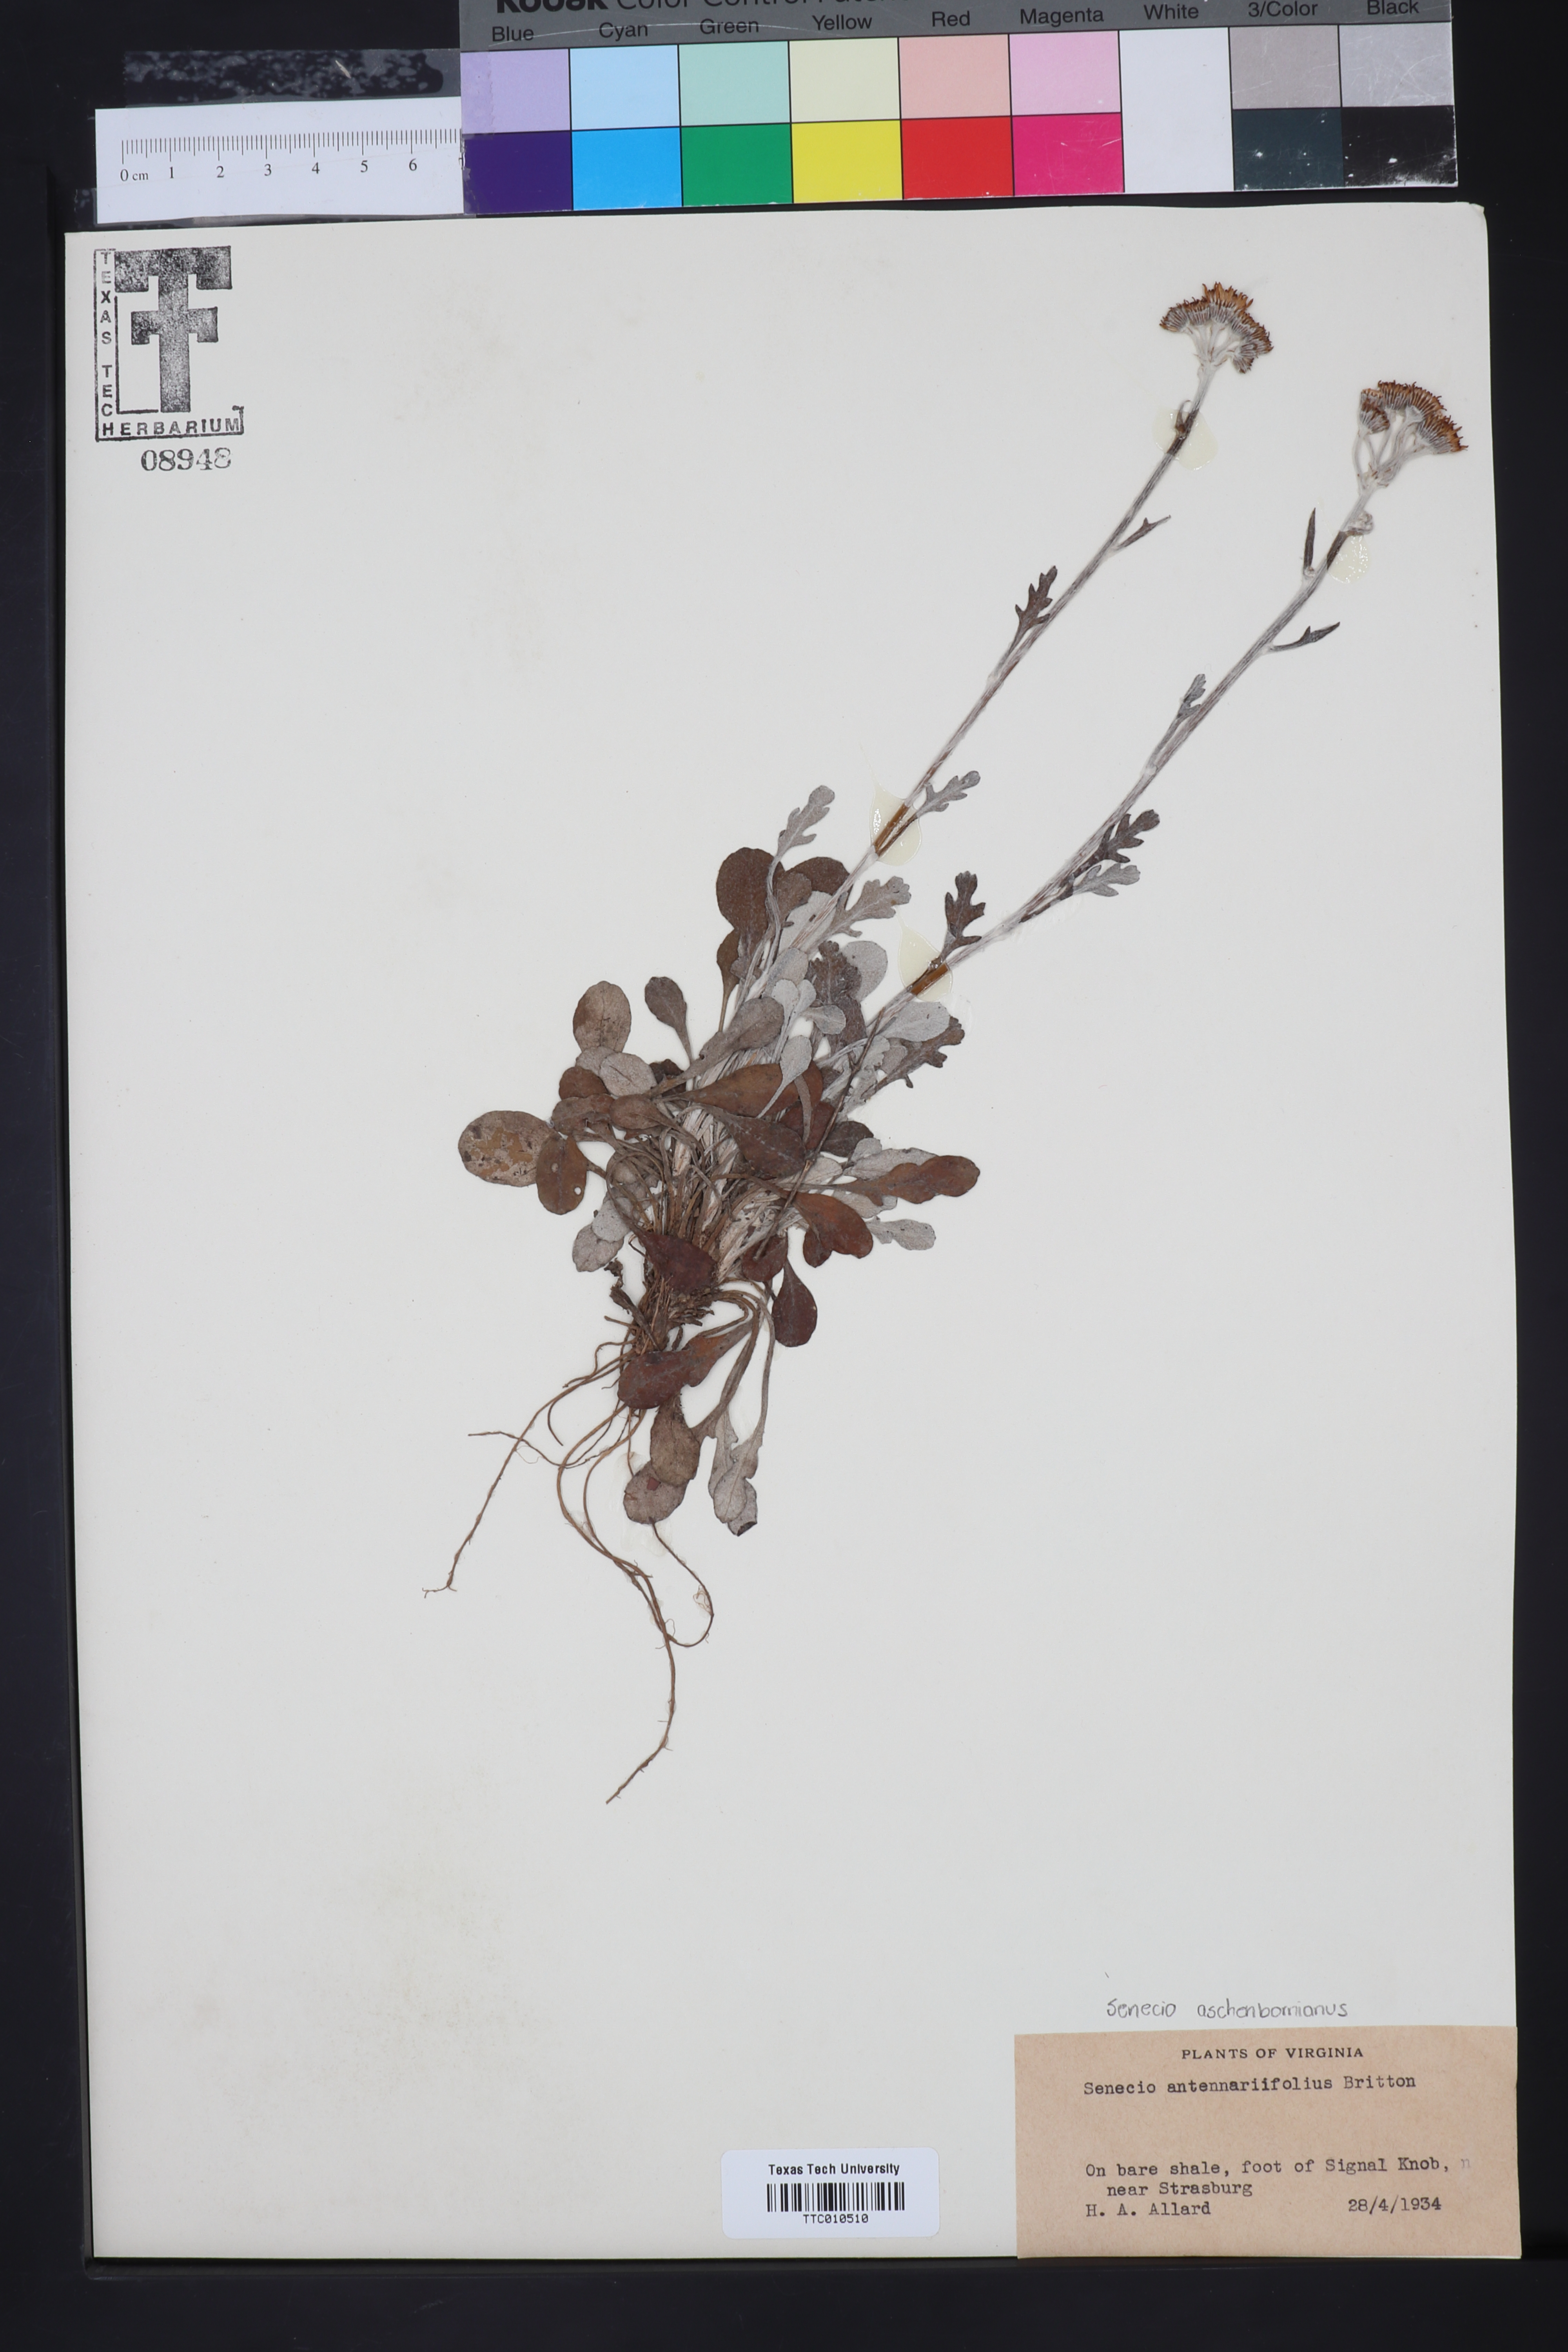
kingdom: Plantae
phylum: Tracheophyta
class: Magnoliopsida
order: Asterales
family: Asteraceae
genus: Packera
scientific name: Packera antennariifolia
